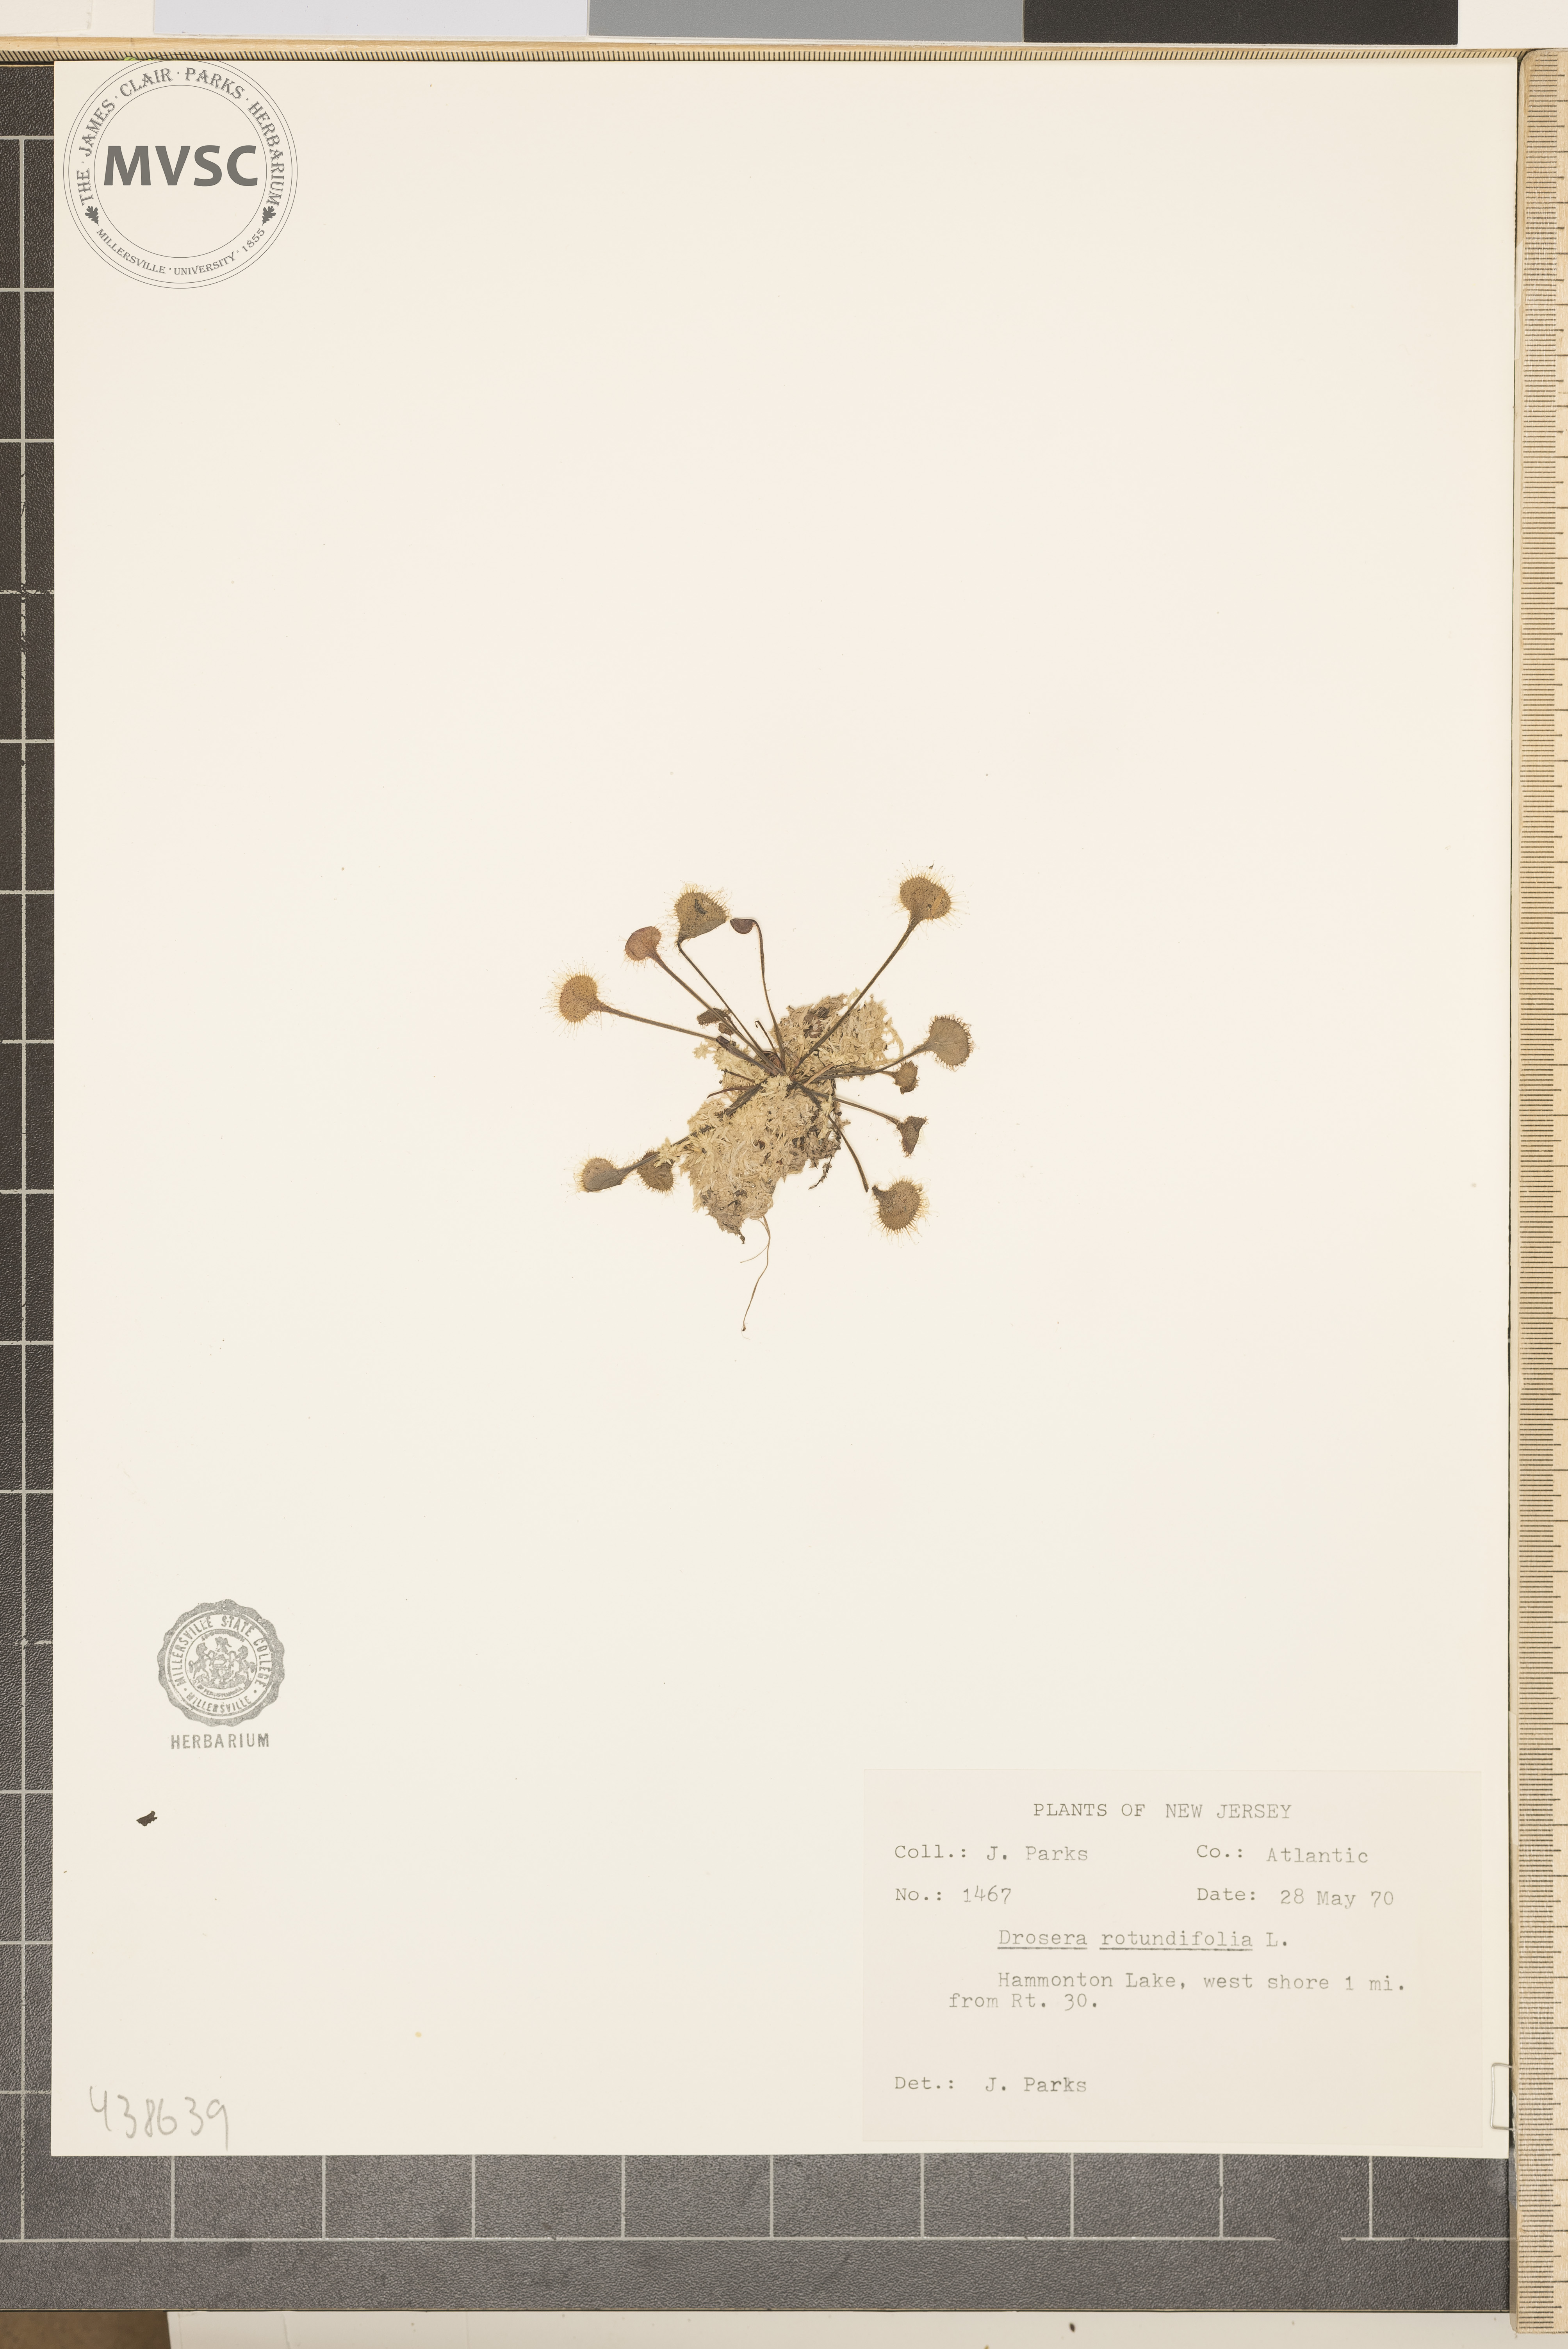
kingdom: Plantae
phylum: Tracheophyta
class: Magnoliopsida
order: Caryophyllales
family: Droseraceae
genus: Drosera
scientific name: Drosera rotundifolia
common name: Round-leaved sundew
